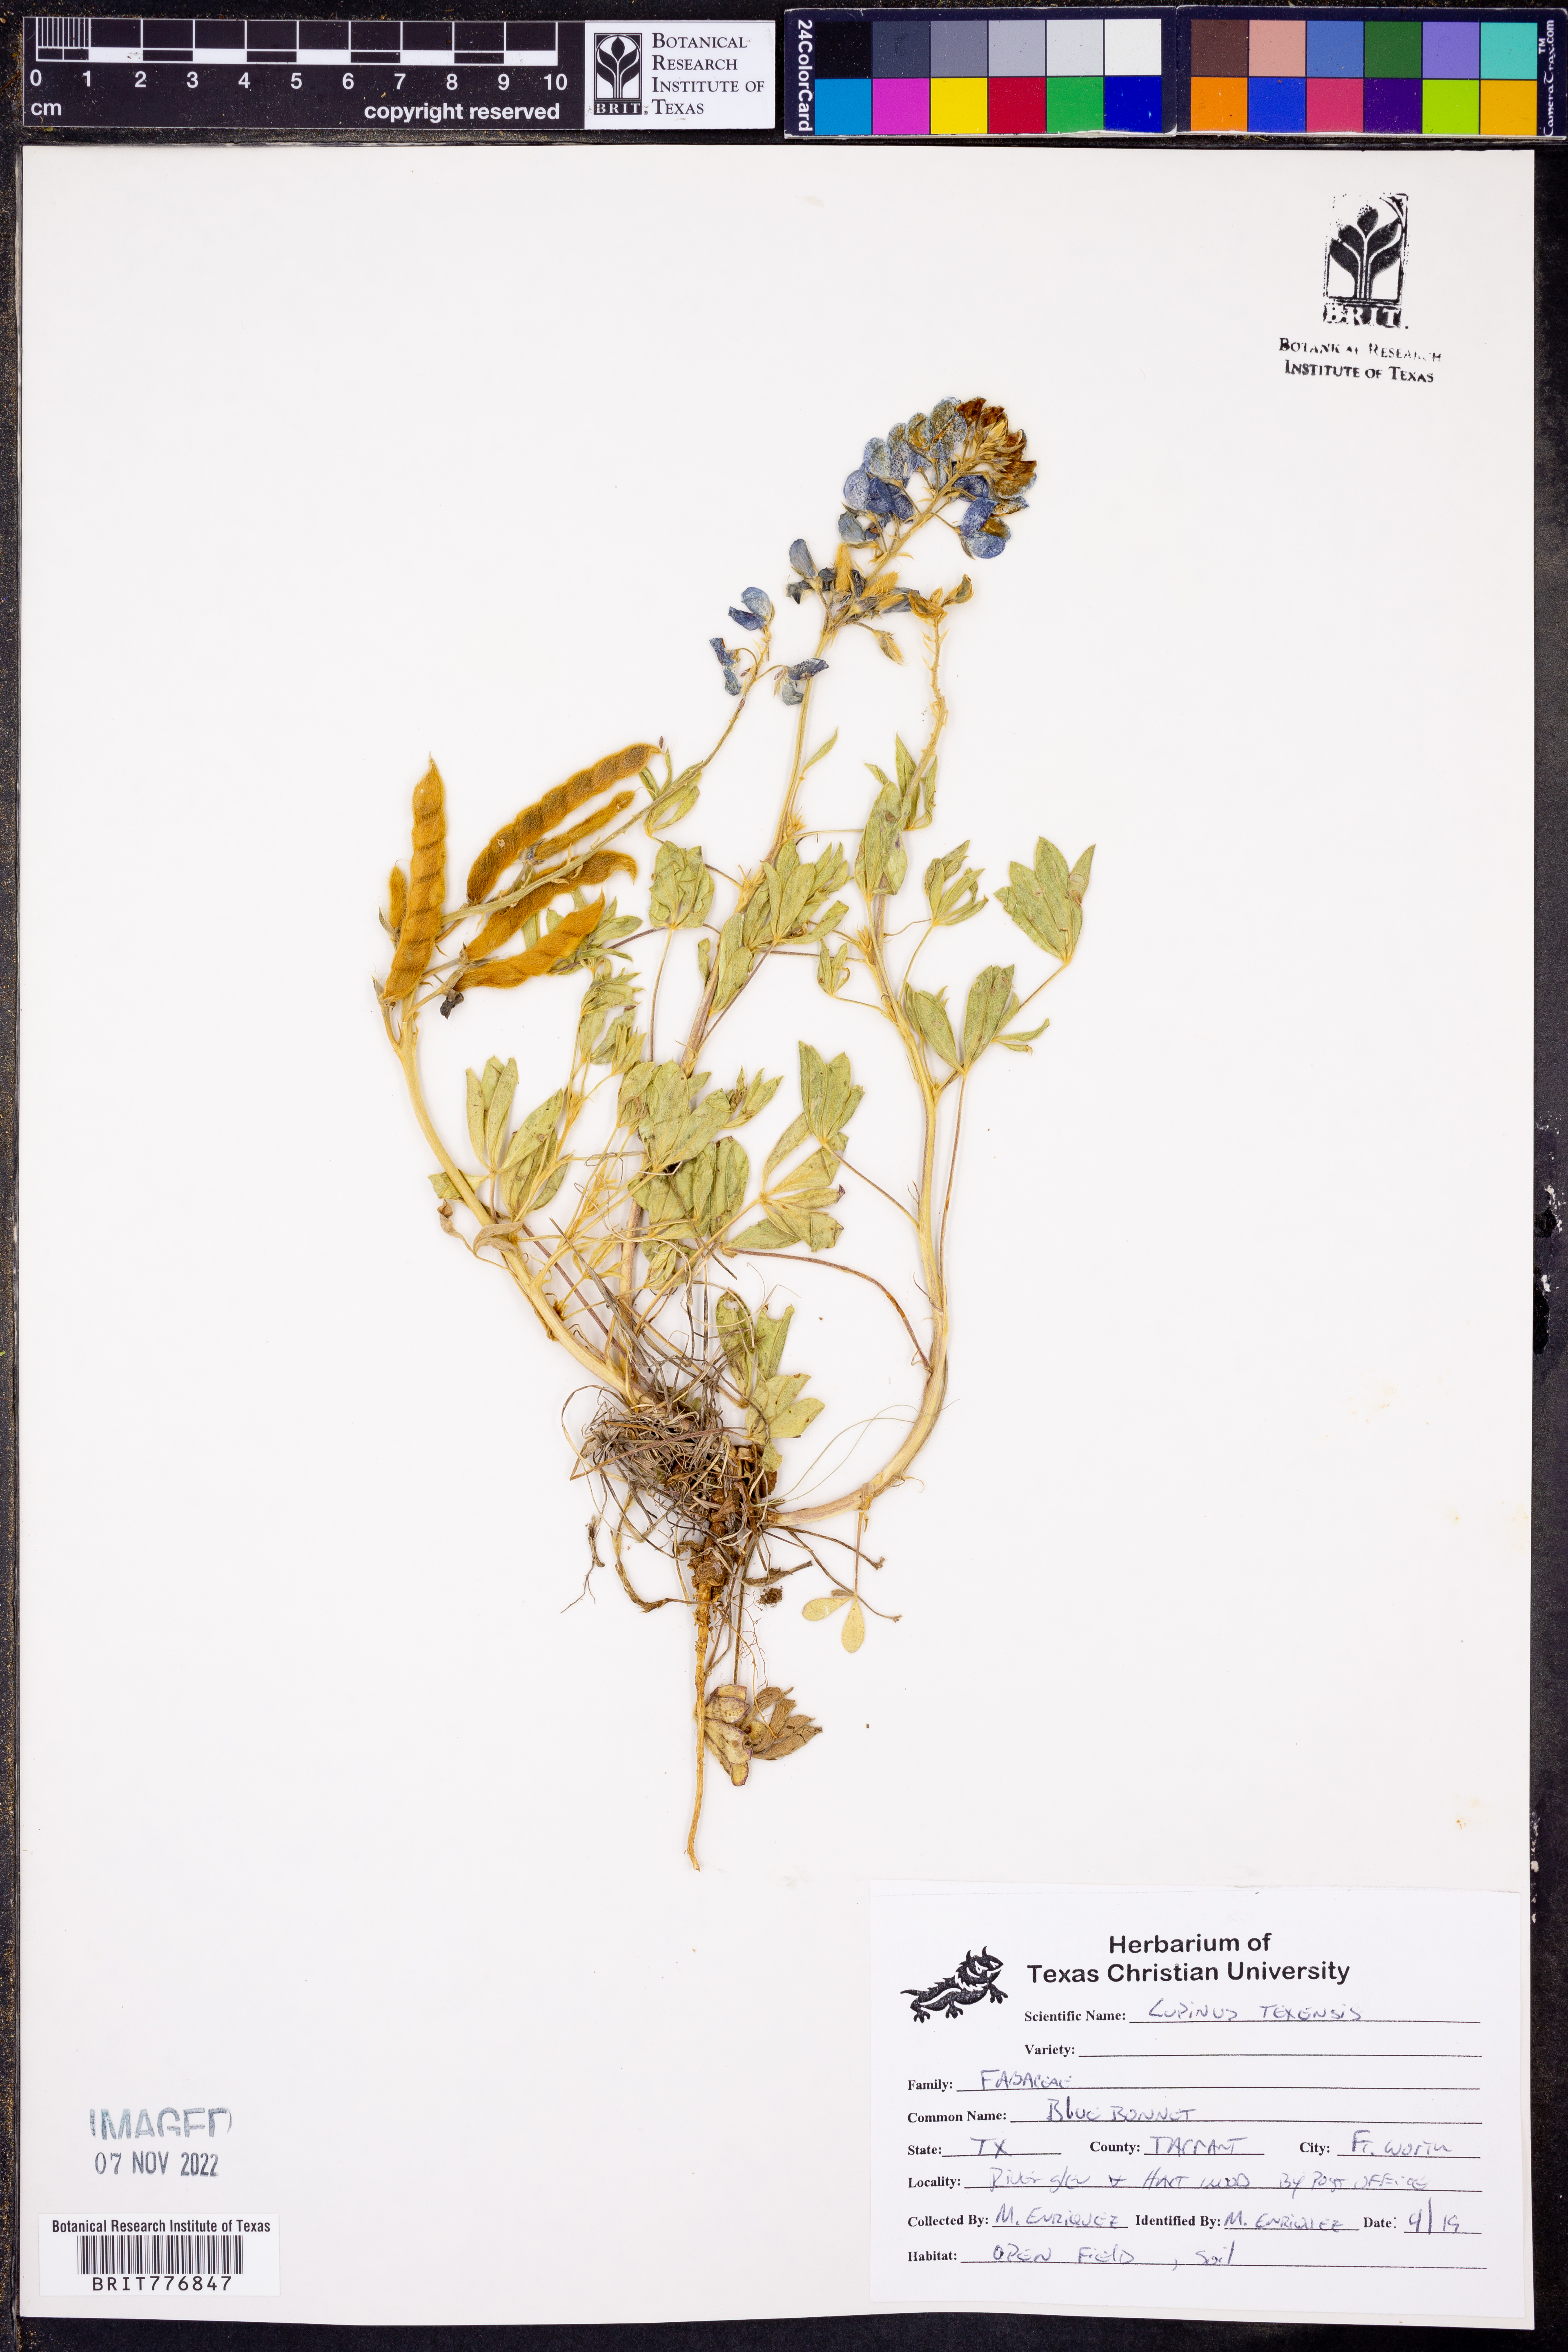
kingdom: Plantae
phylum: Tracheophyta
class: Magnoliopsida
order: Fabales
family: Fabaceae
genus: Lupinus
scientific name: Lupinus texensis
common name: Texas bluebonnet
